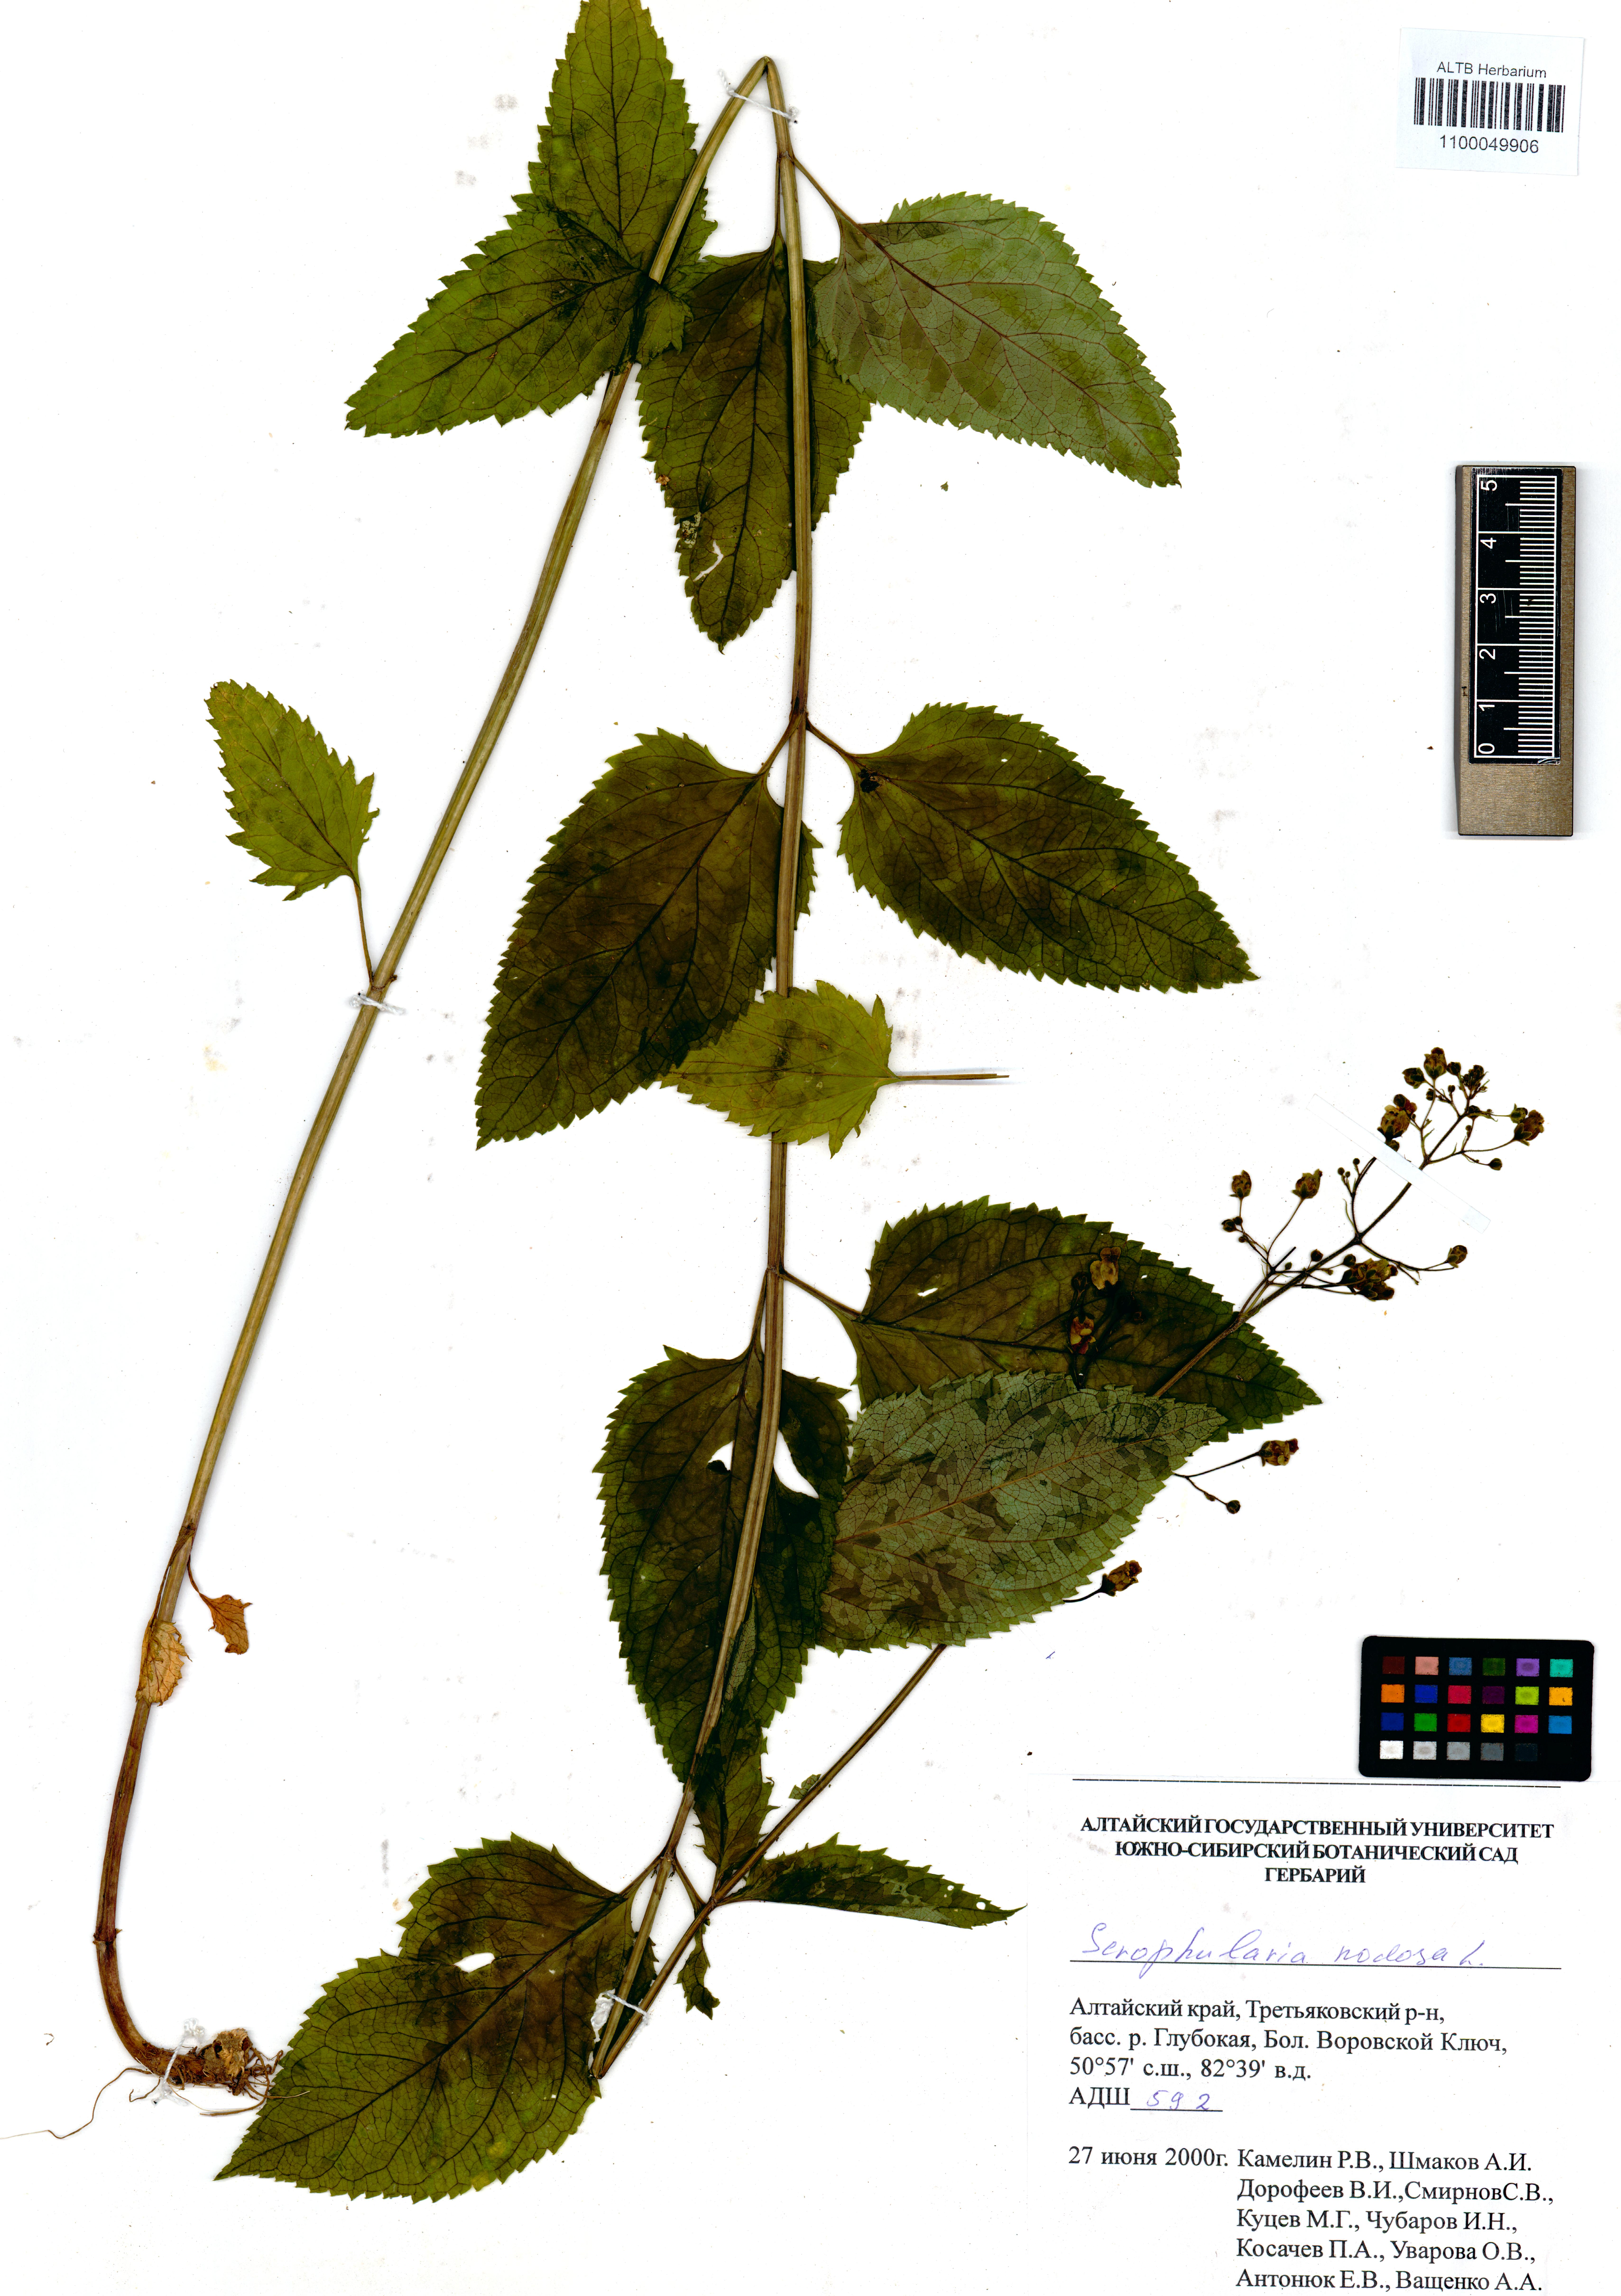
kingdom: Plantae
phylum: Tracheophyta
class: Magnoliopsida
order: Lamiales
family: Scrophulariaceae
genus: Scrophularia
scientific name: Scrophularia nodosa
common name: Common figwort
